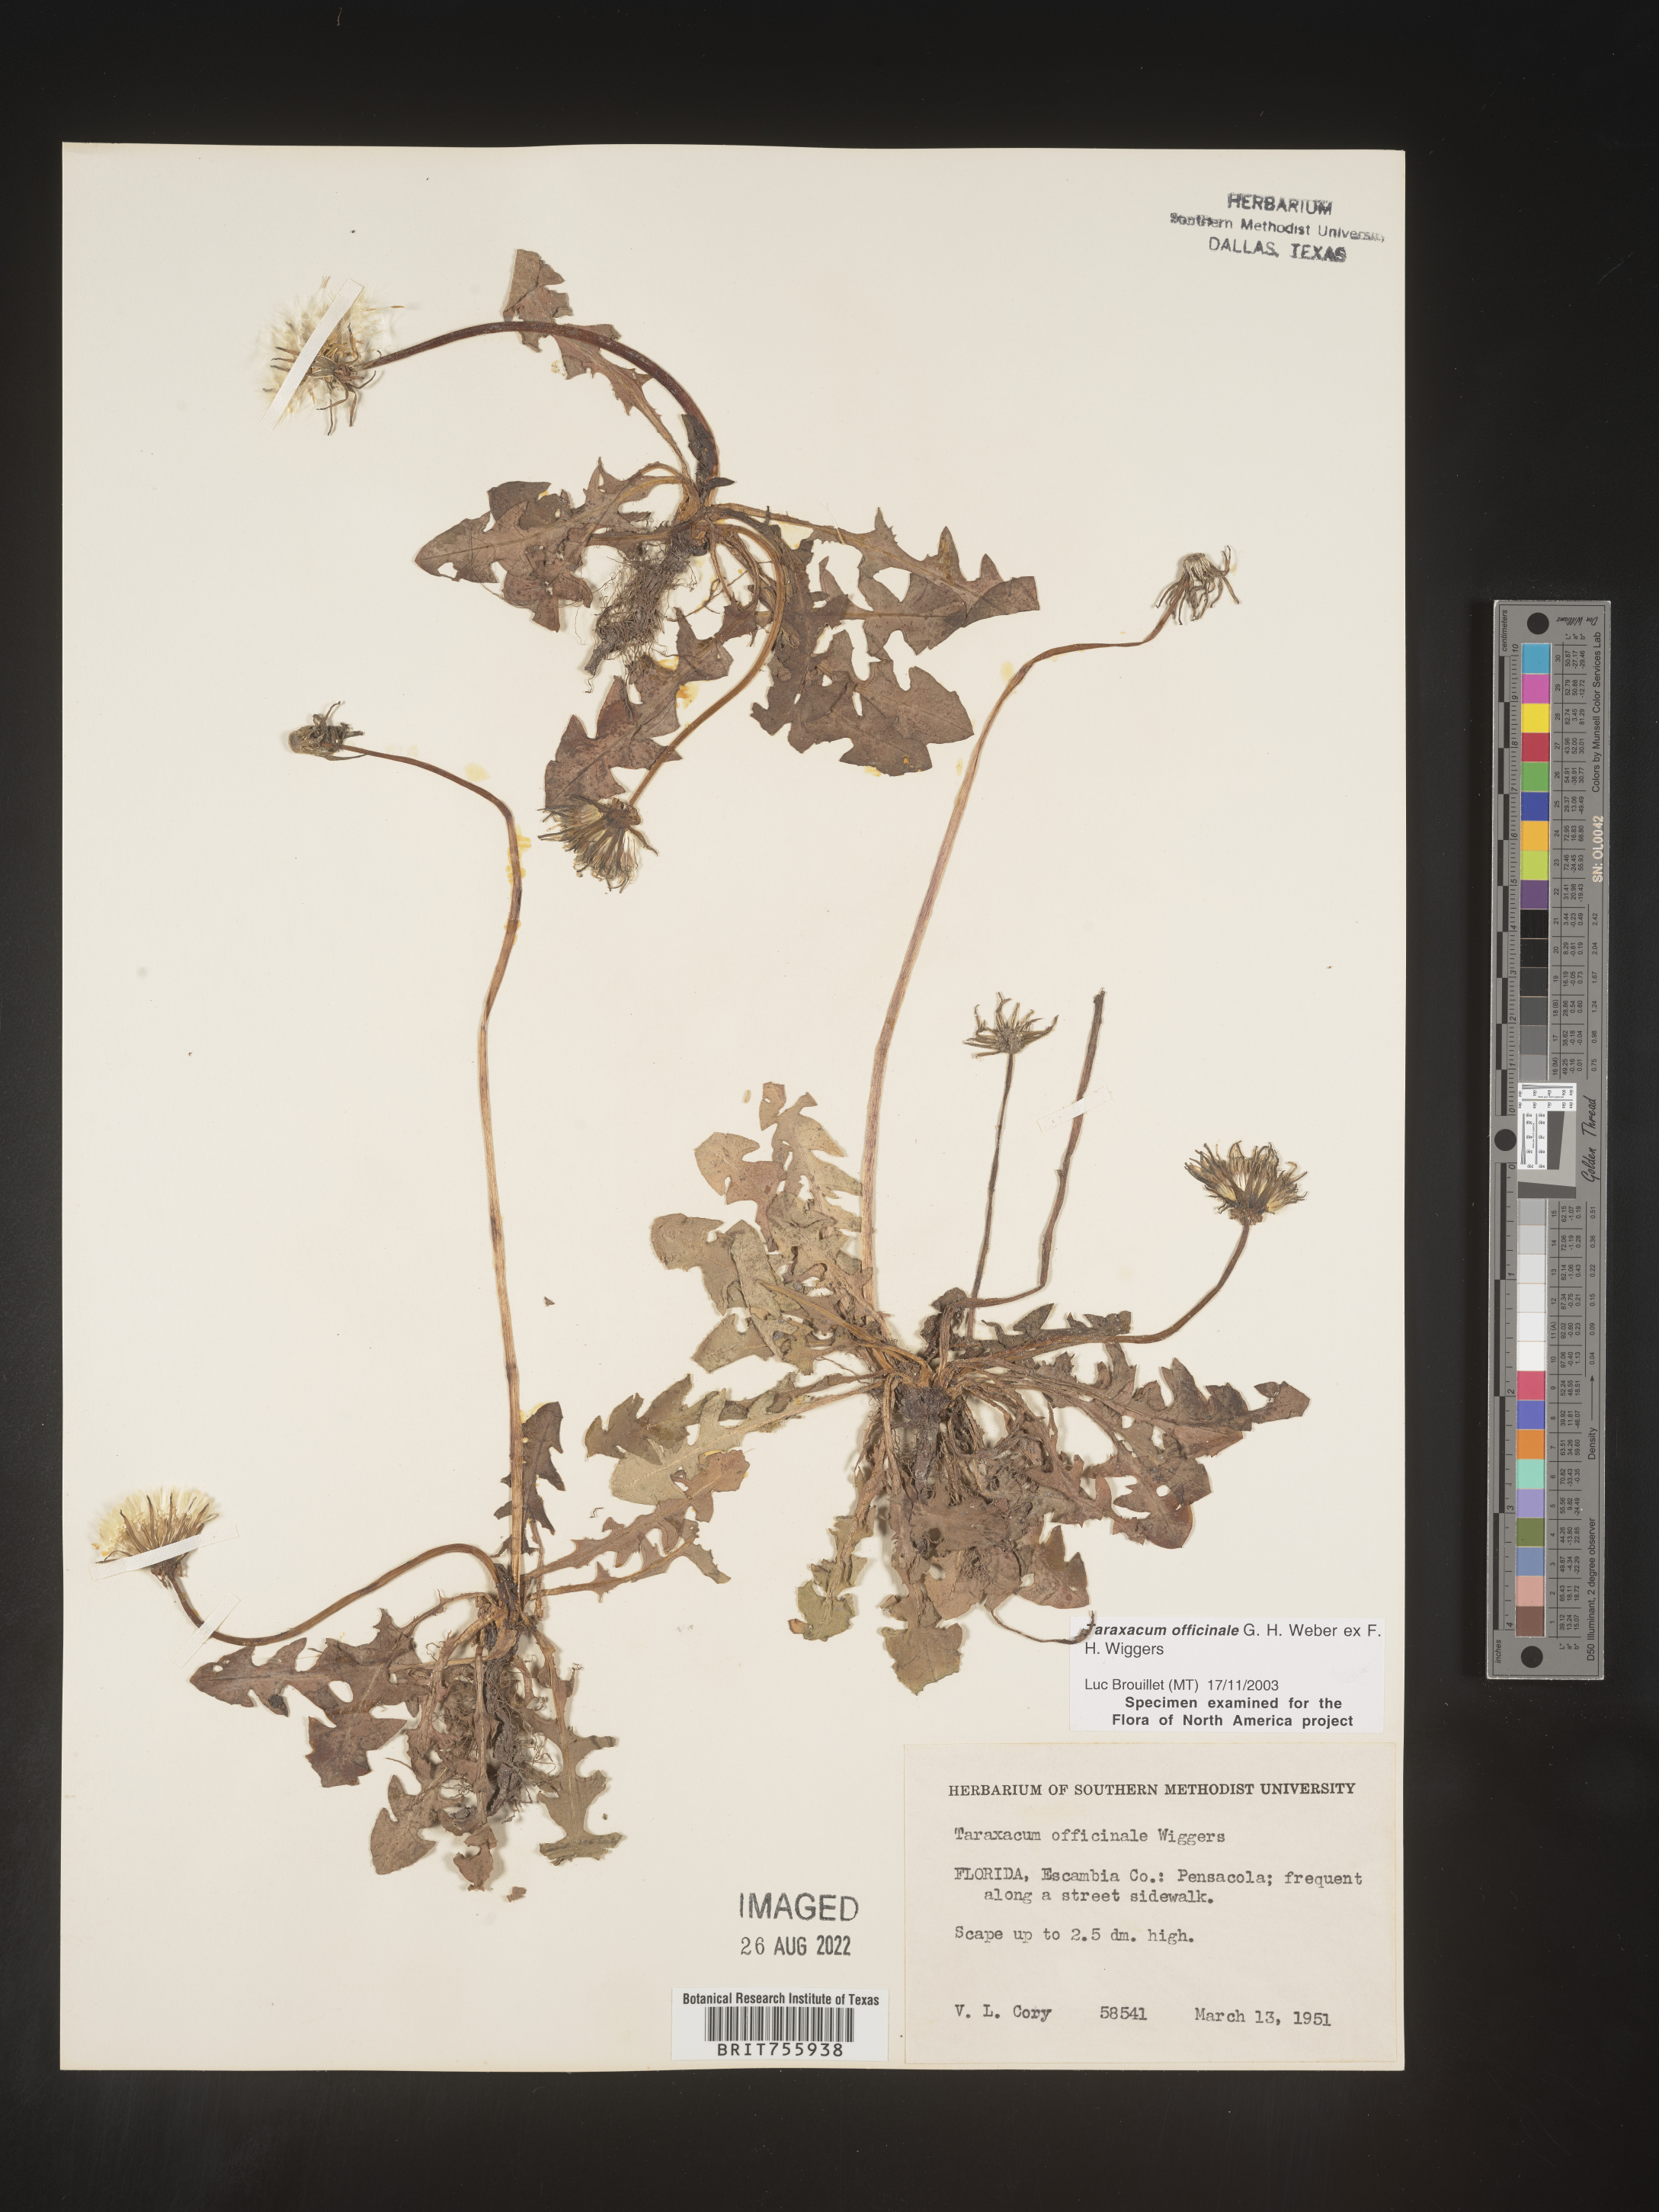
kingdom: Plantae
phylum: Tracheophyta
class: Magnoliopsida
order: Asterales
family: Asteraceae
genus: Taraxacum
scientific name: Taraxacum officinale
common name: Common dandelion
